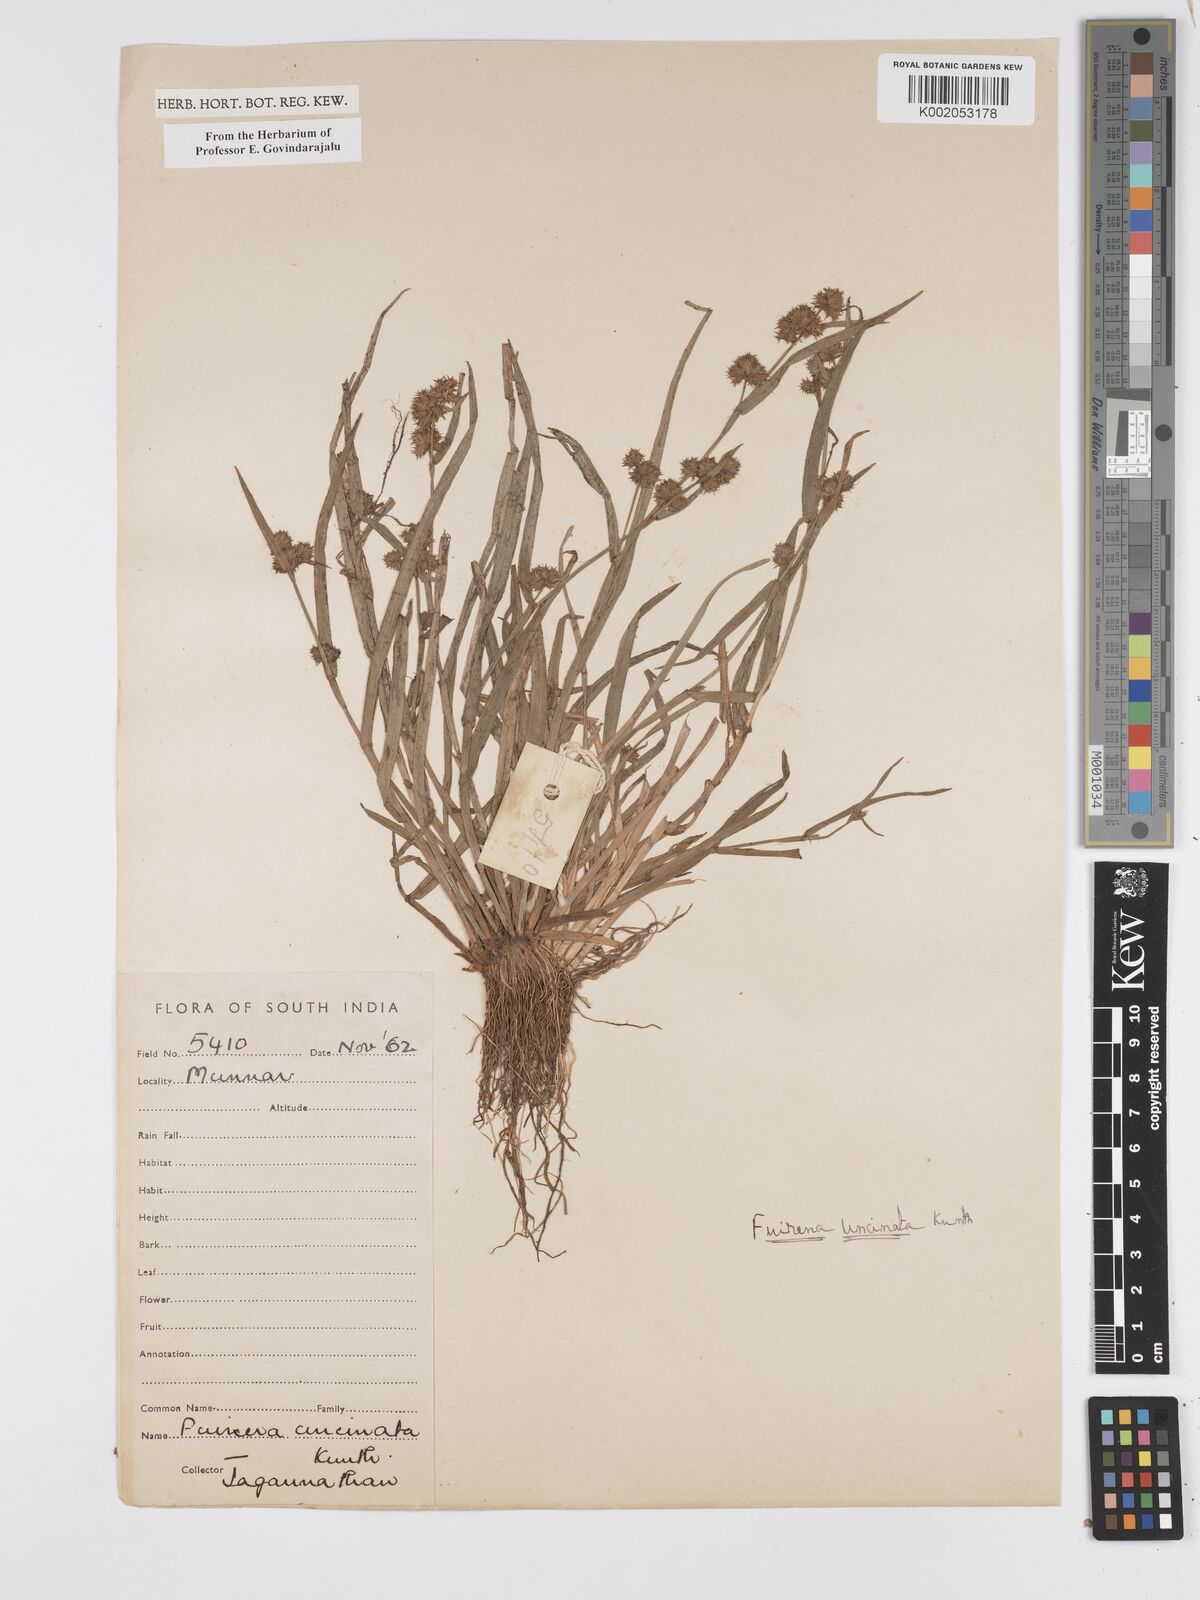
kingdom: Plantae
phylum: Tracheophyta
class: Liliopsida
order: Poales
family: Cyperaceae
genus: Fuirena
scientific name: Fuirena uncinata
